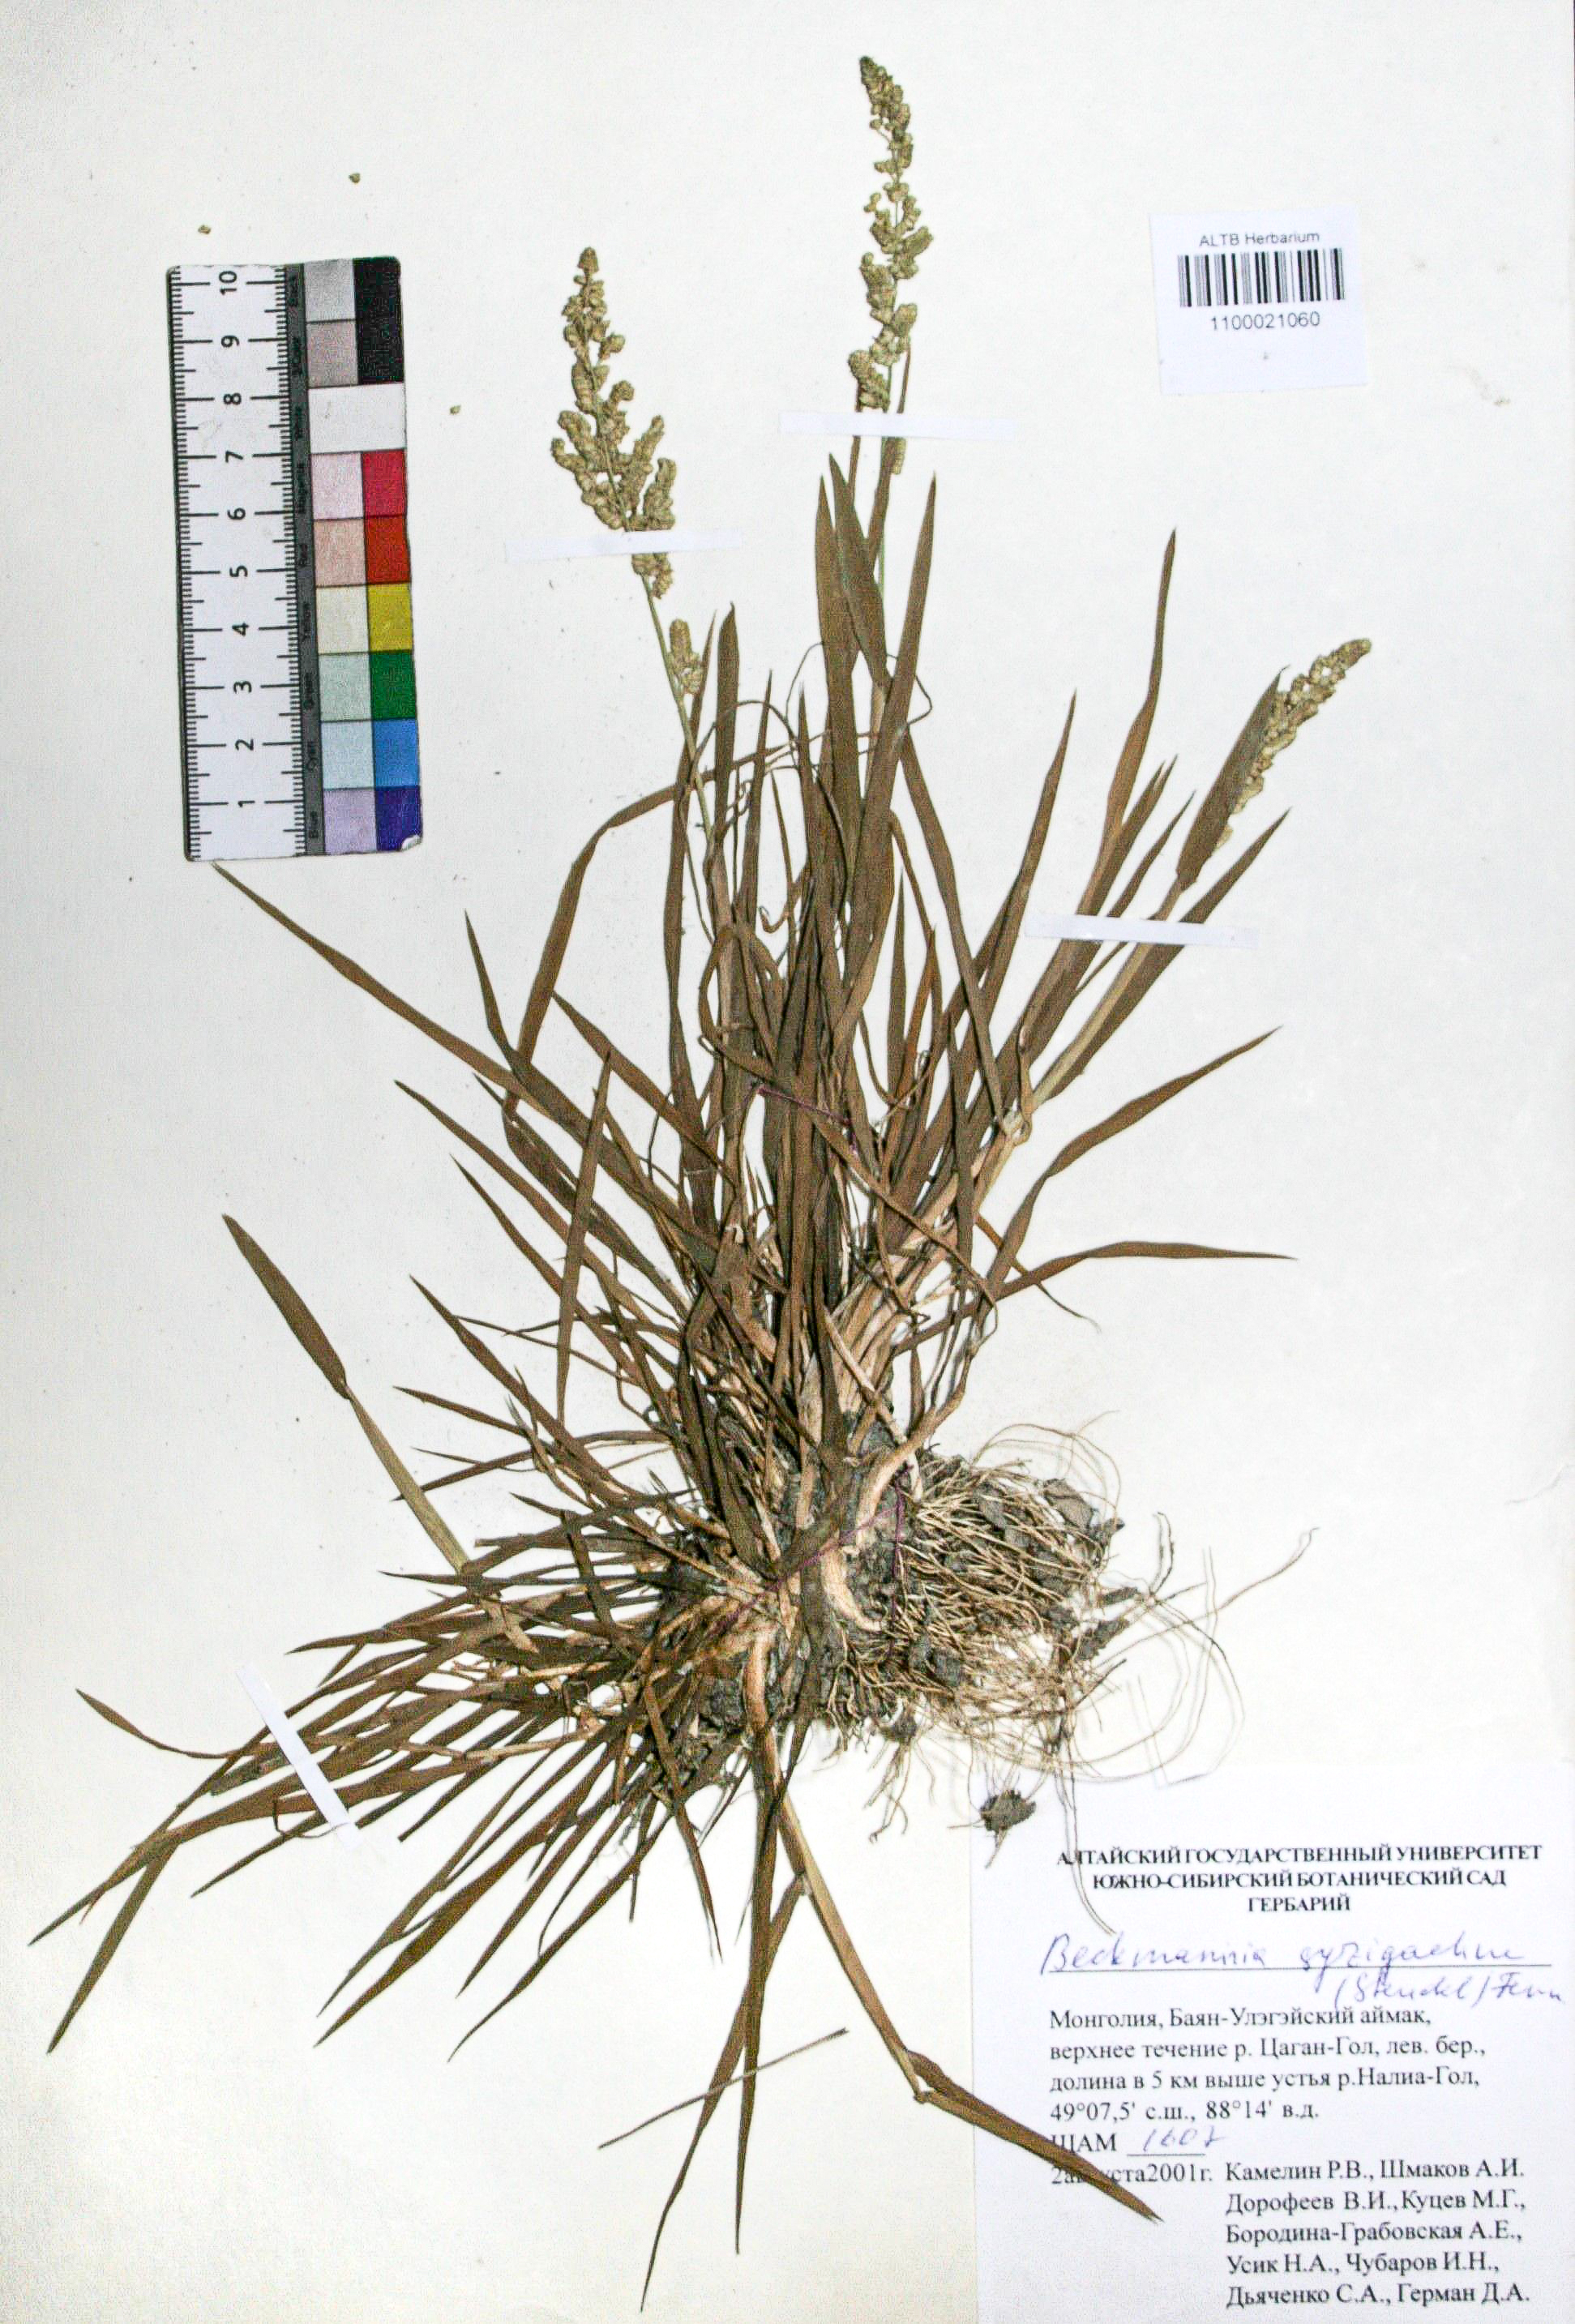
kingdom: Plantae
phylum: Tracheophyta
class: Liliopsida
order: Poales
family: Poaceae
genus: Beckmannia
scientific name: Beckmannia syzigachne
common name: American slough-grass
